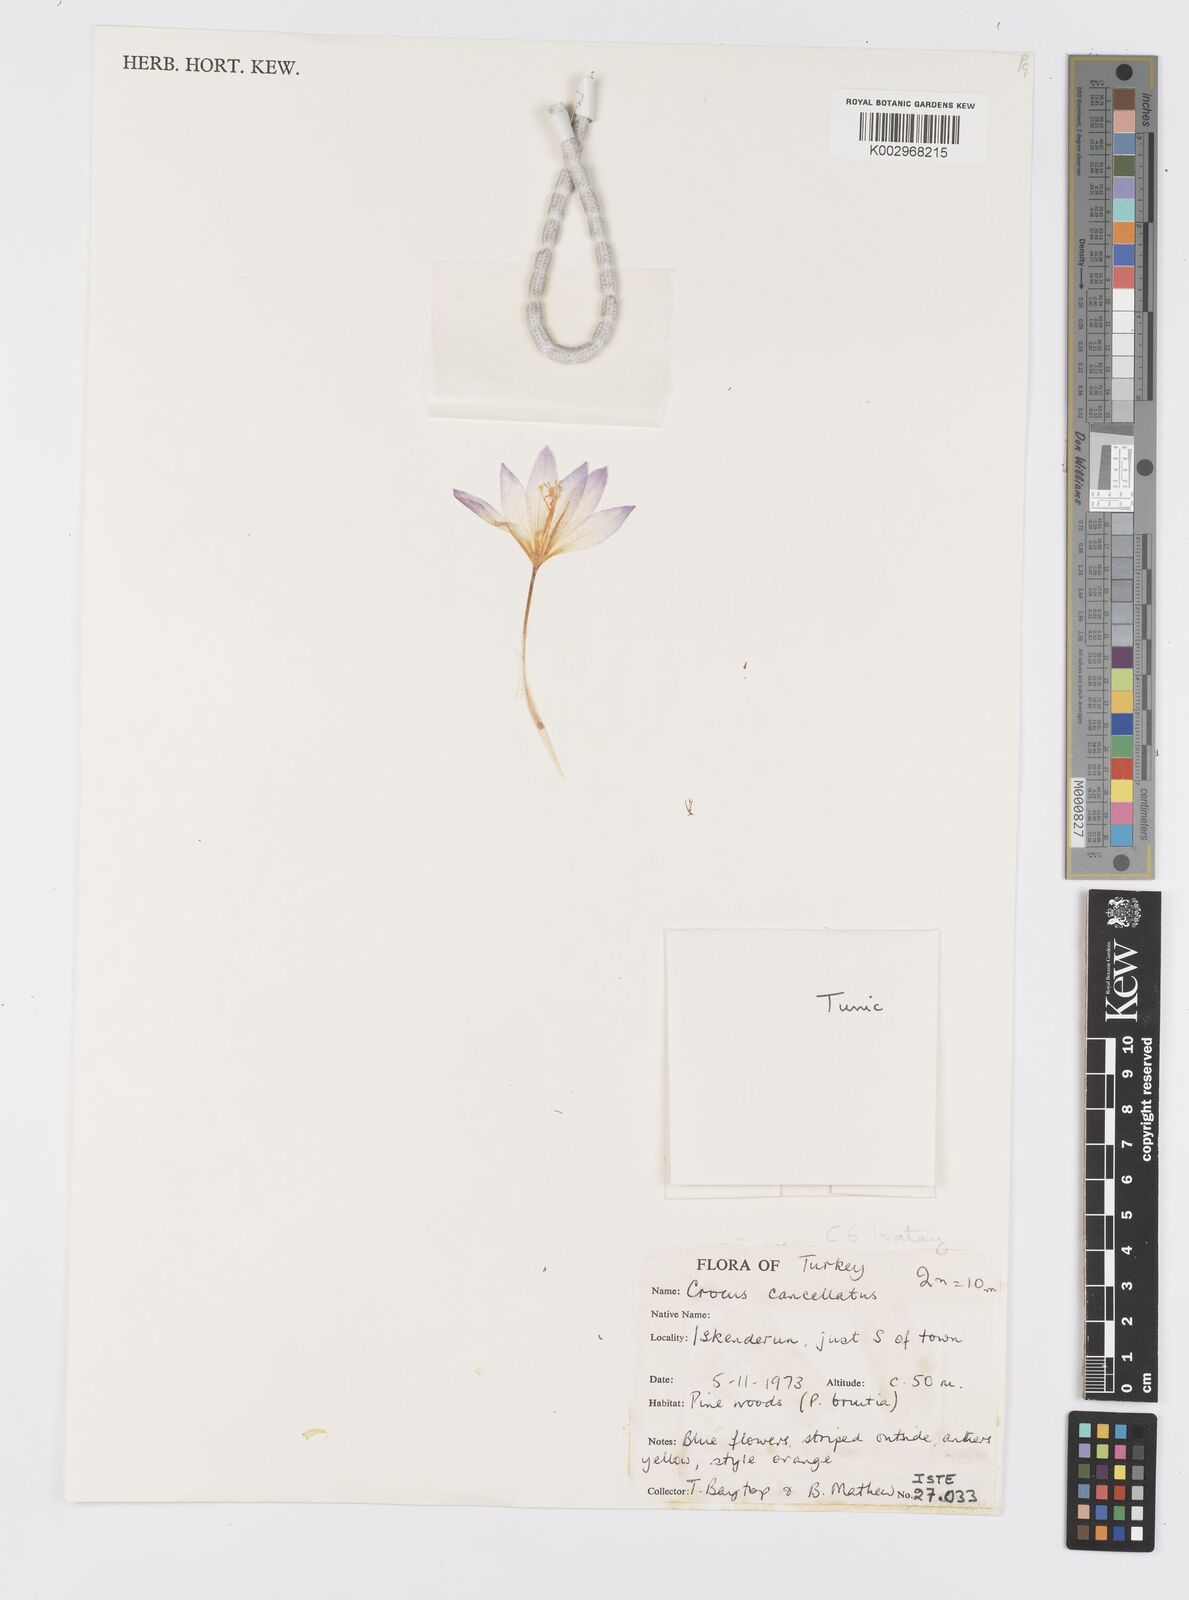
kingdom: Plantae
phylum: Tracheophyta
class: Liliopsida
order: Asparagales
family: Iridaceae
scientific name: Iridaceae
